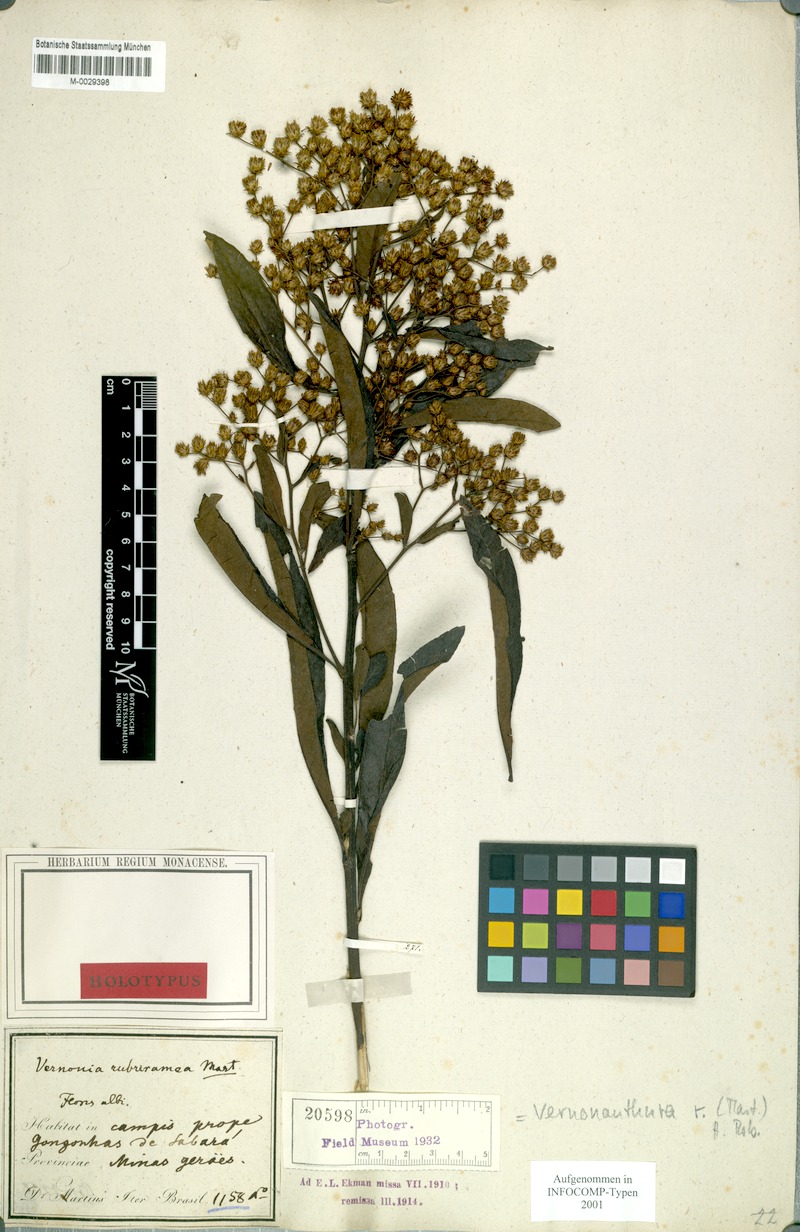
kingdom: Plantae
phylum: Tracheophyta
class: Magnoliopsida
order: Asterales
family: Asteraceae
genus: Vernonanthura
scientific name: Vernonanthura rubriramea
